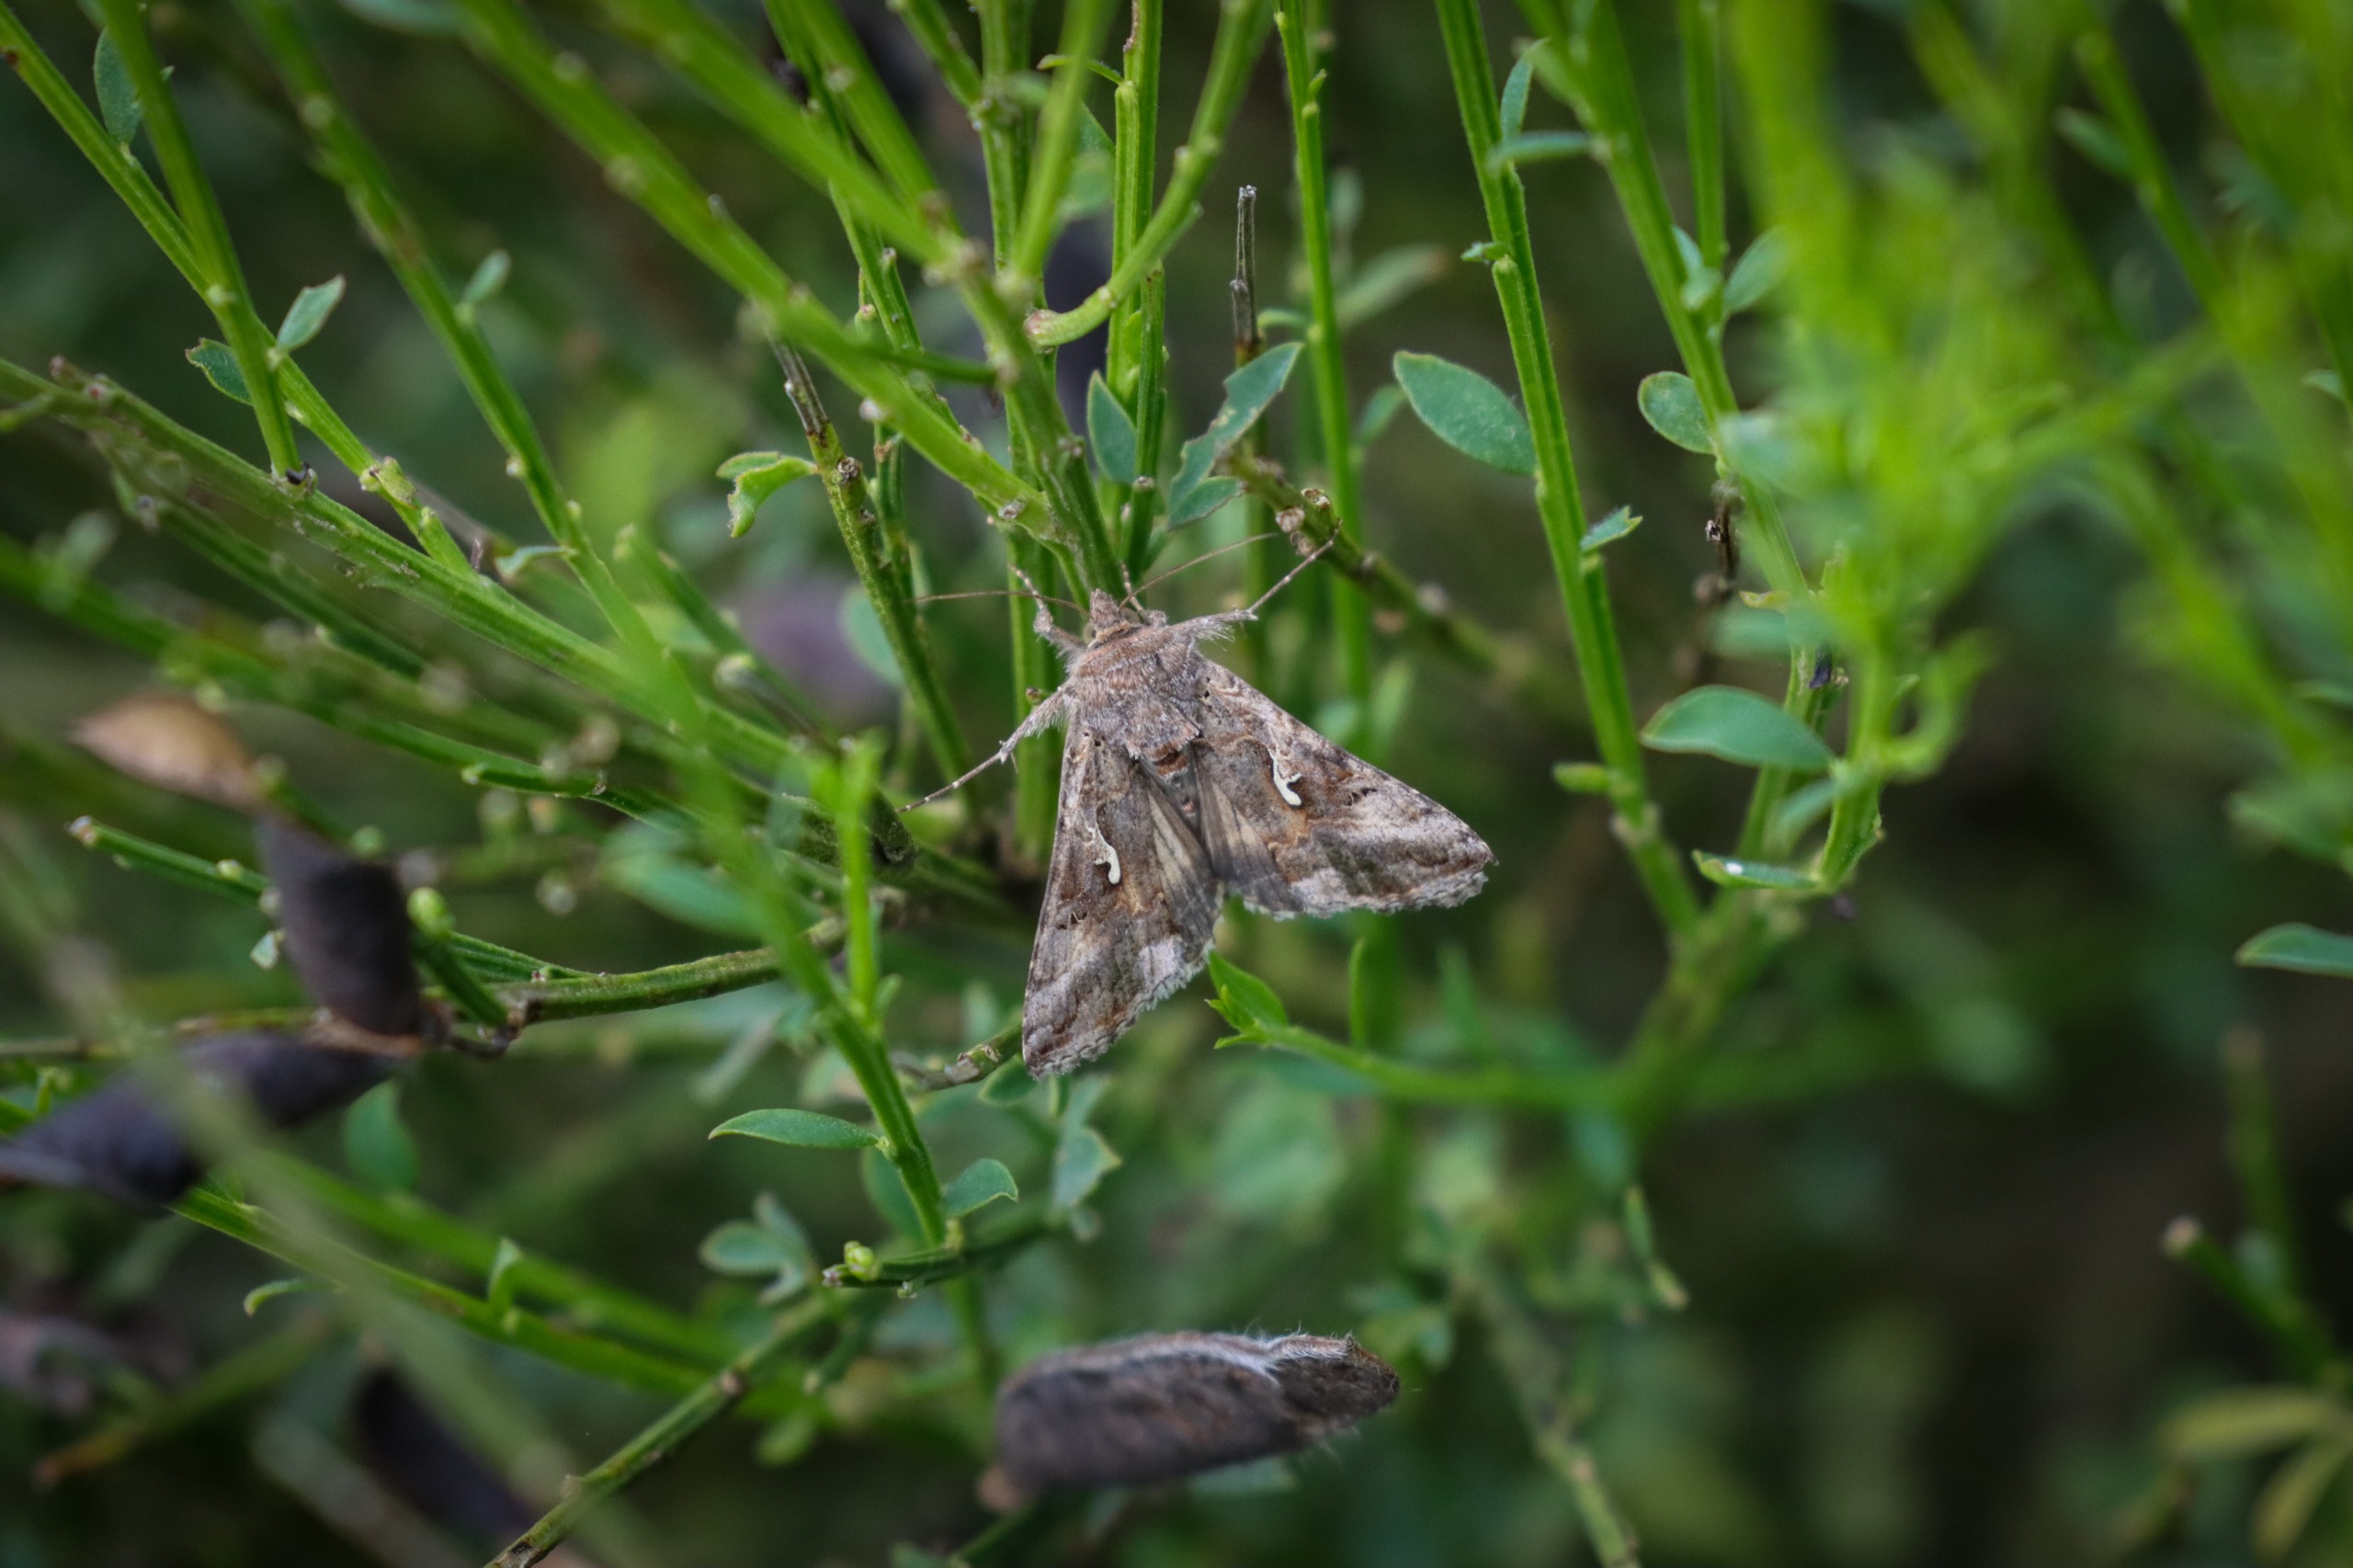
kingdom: Animalia
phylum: Arthropoda
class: Insecta
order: Lepidoptera
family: Noctuidae
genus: Autographa
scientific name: Autographa gamma
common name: Gammaugle
